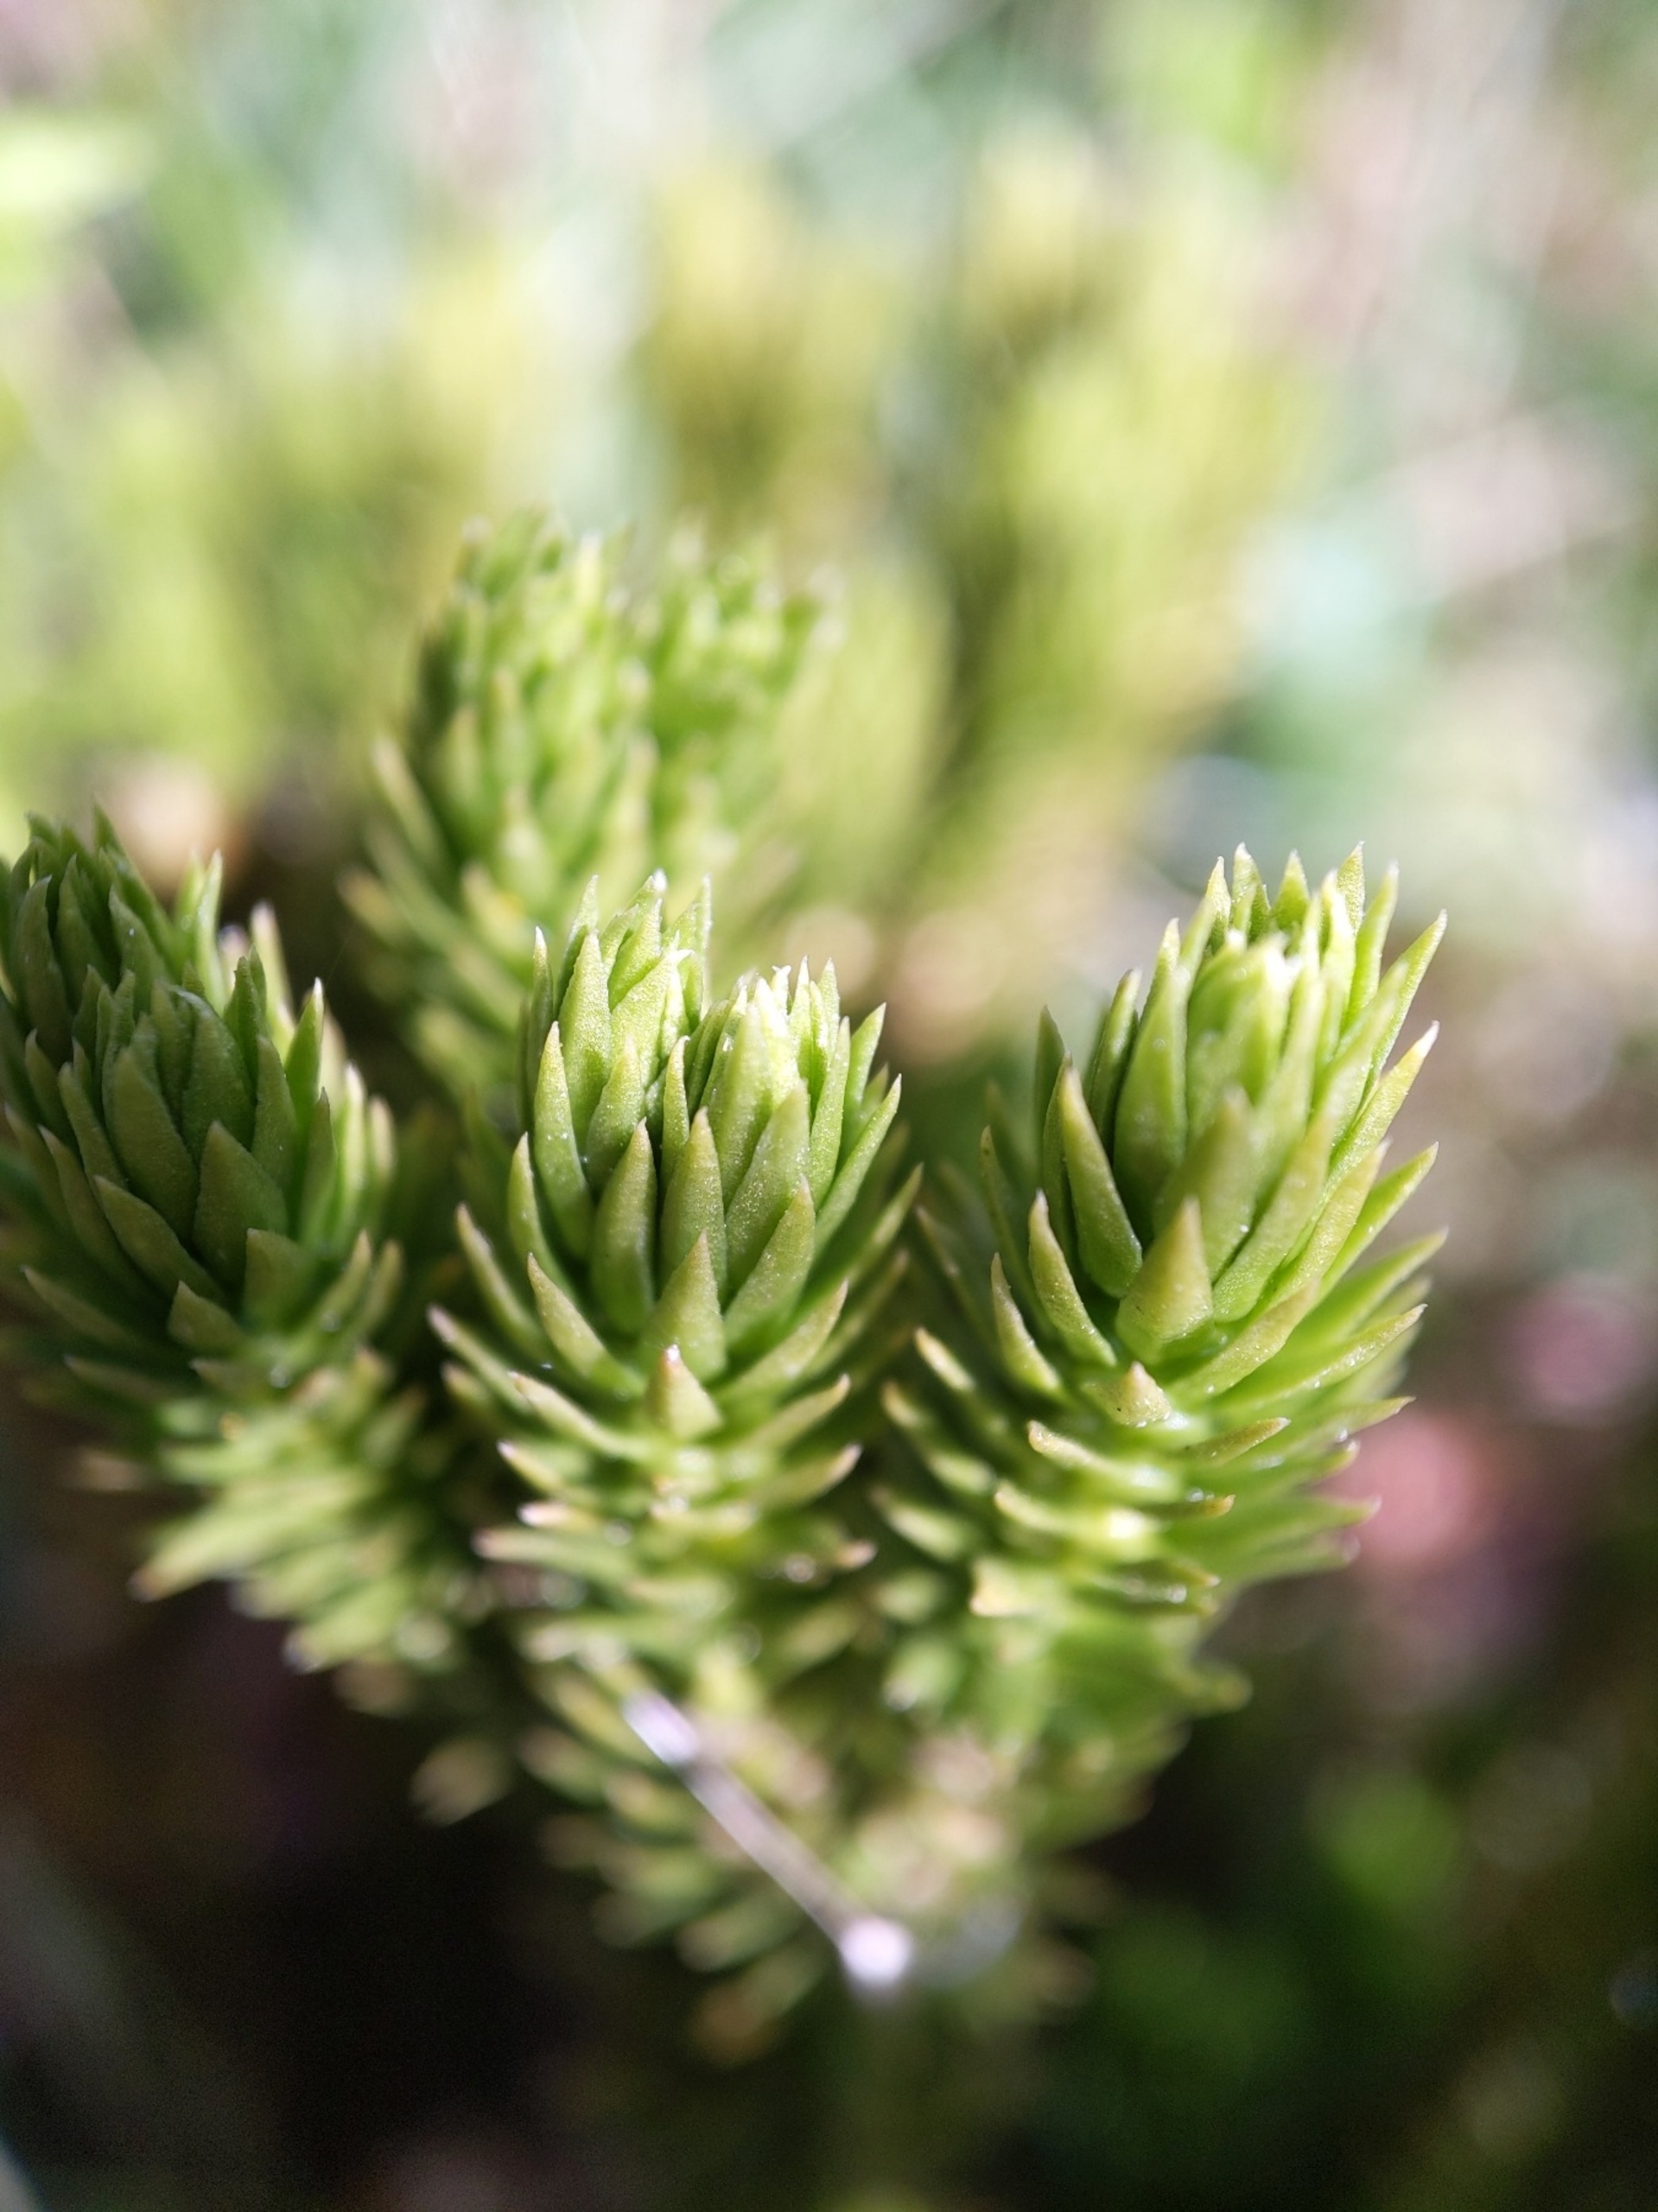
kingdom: Plantae
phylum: Tracheophyta
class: Lycopodiopsida
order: Lycopodiales
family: Lycopodiaceae
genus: Huperzia
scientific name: Huperzia selago
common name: Otteradet ulvefod
